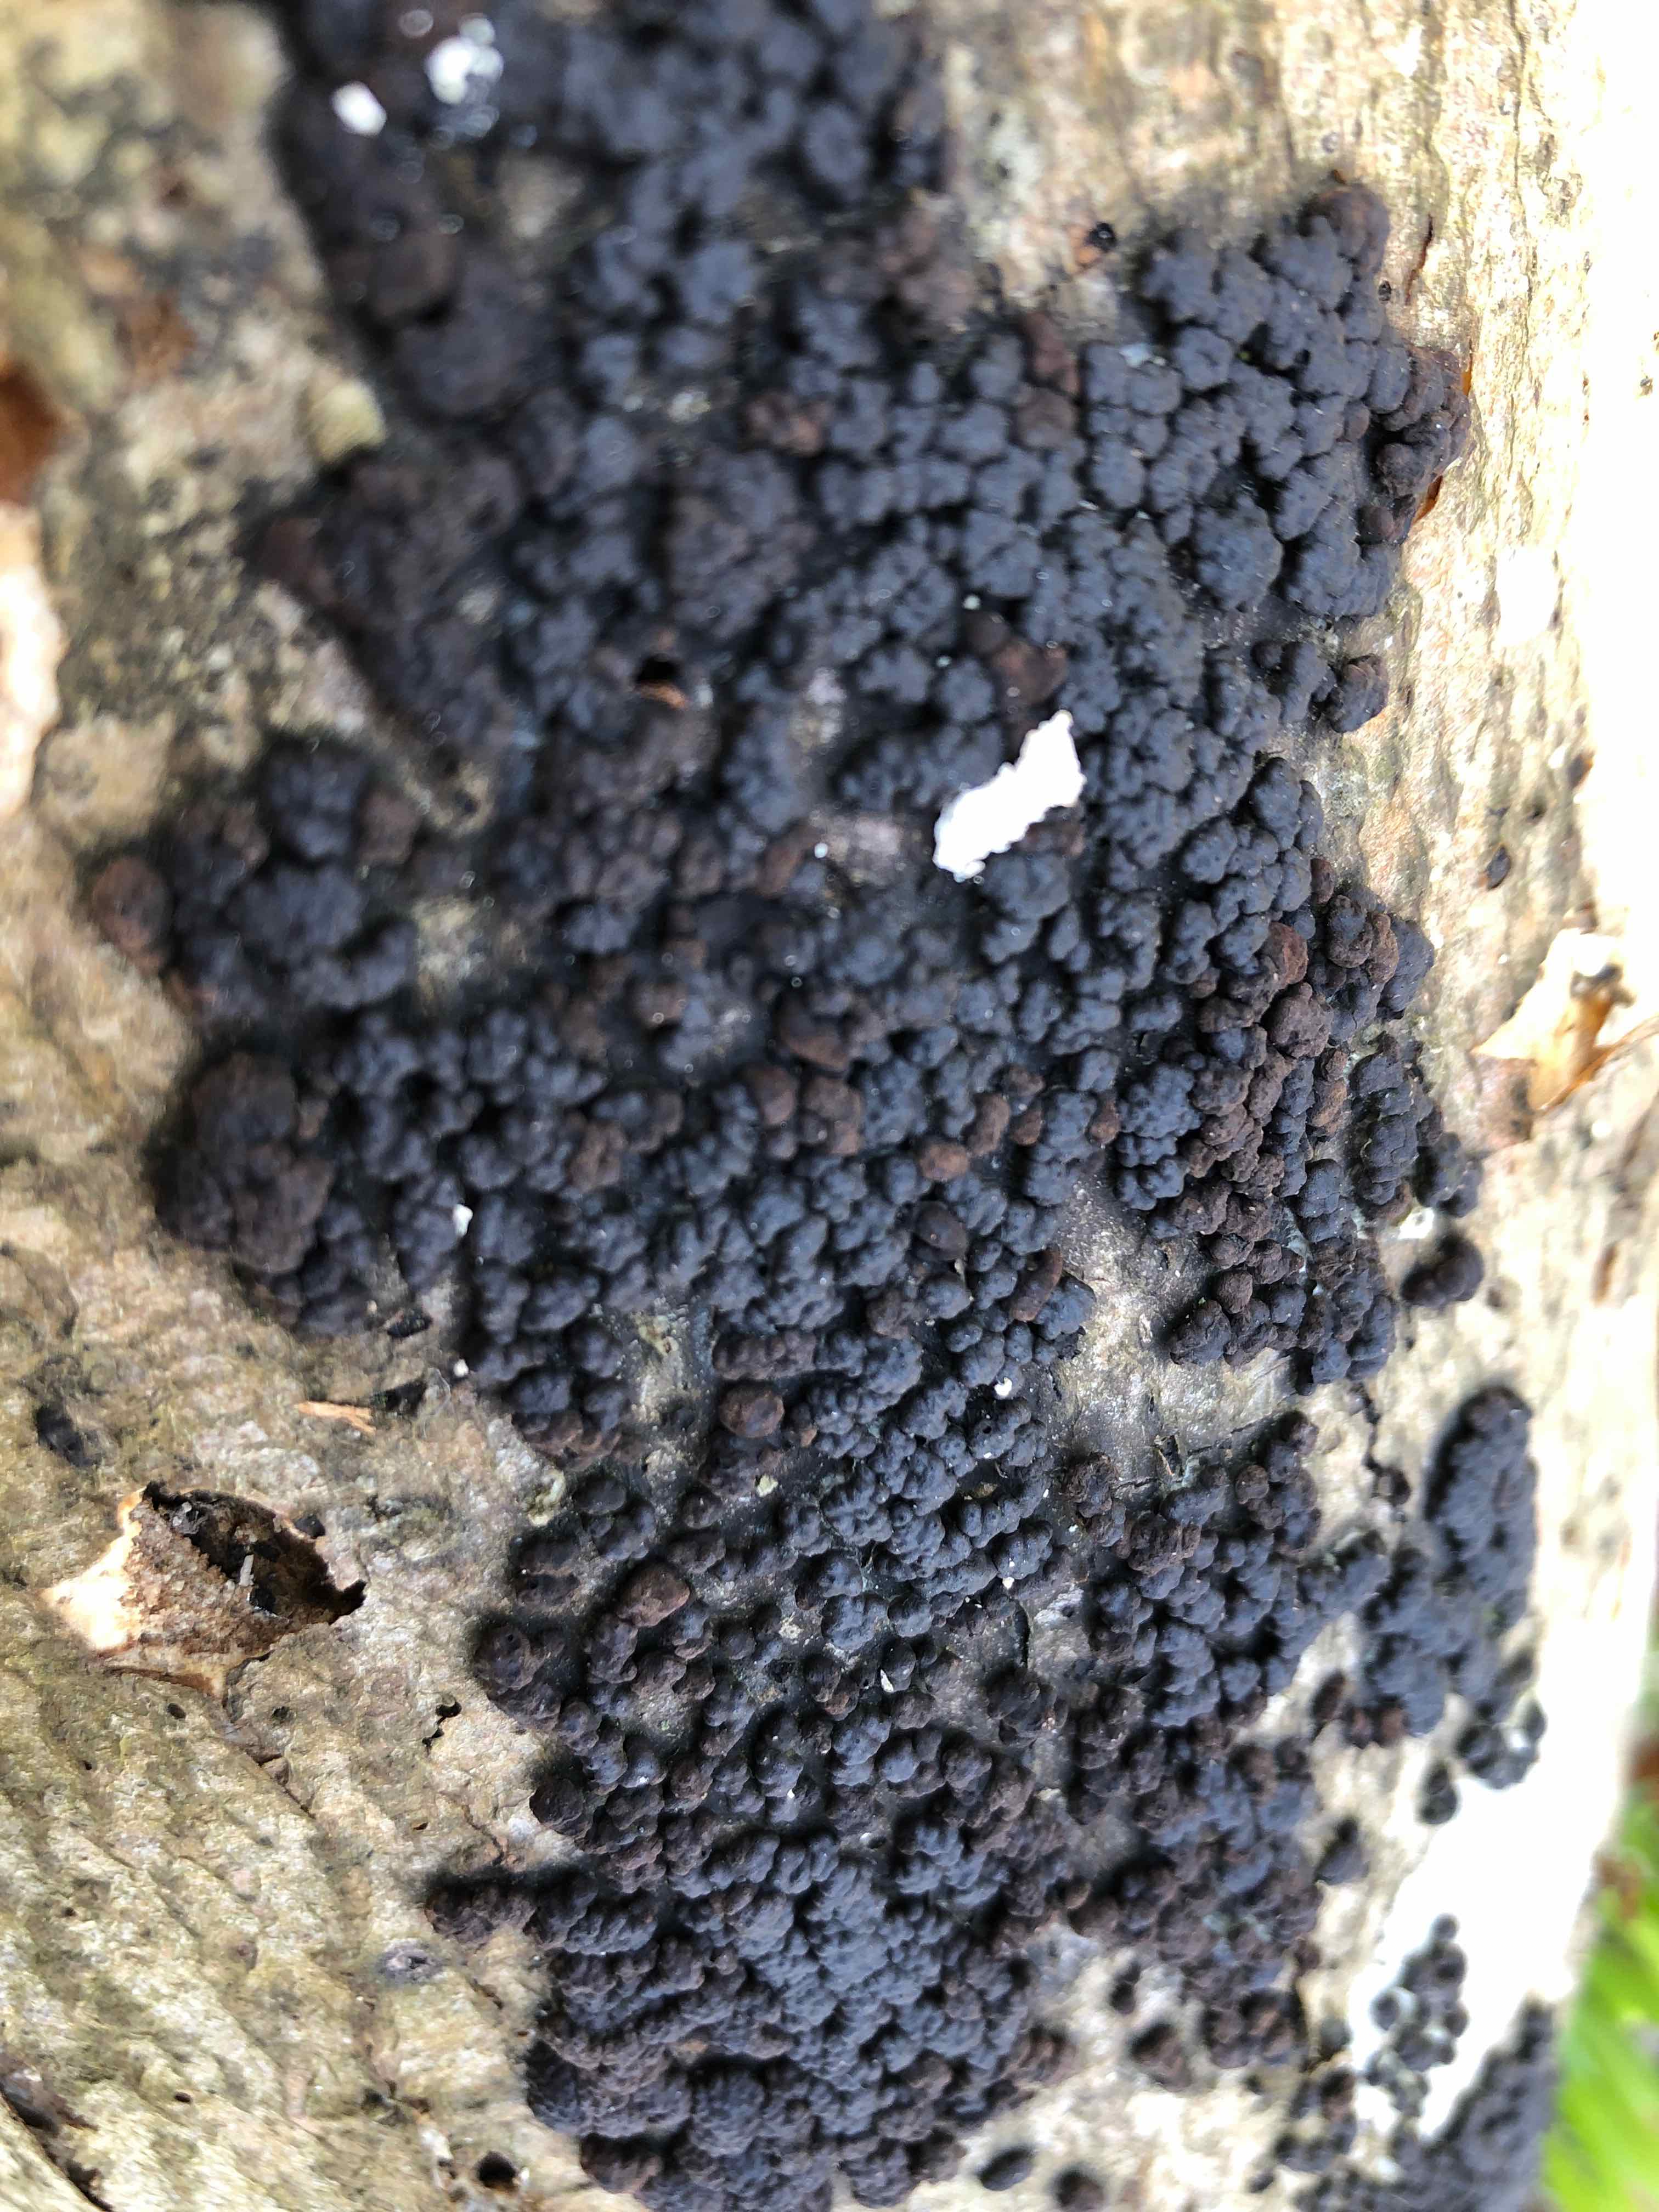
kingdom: Fungi
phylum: Ascomycota
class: Sordariomycetes
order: Xylariales
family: Hypoxylaceae
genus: Jackrogersella
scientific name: Jackrogersella cohaerens
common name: sammenflydende kulbær
